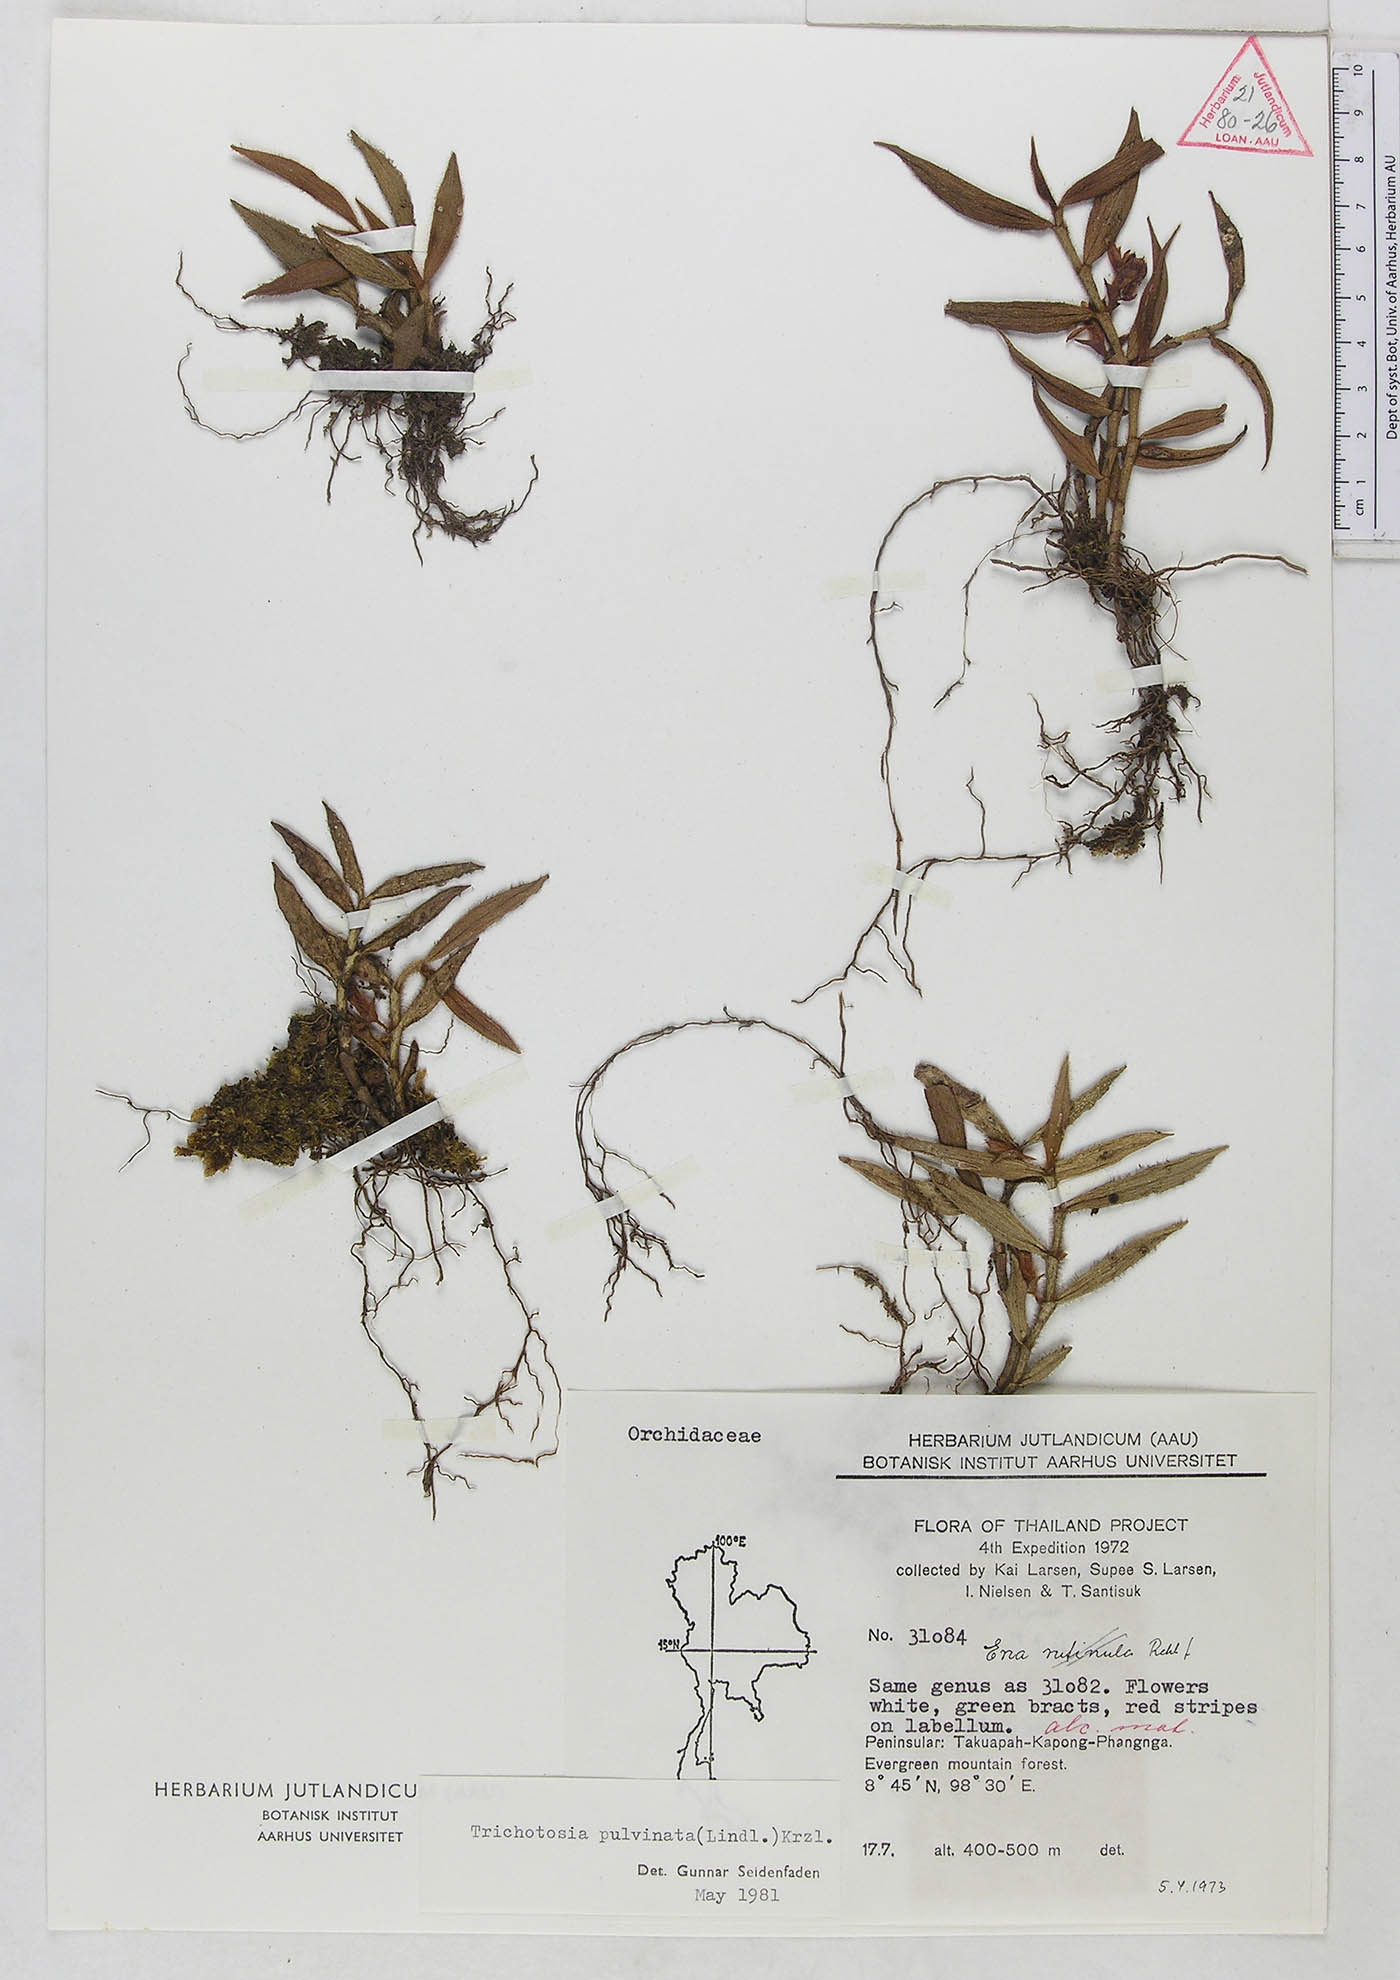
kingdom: Plantae
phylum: Tracheophyta
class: Liliopsida
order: Asparagales
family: Orchidaceae
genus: Trichotosia
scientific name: Trichotosia pulvinata
